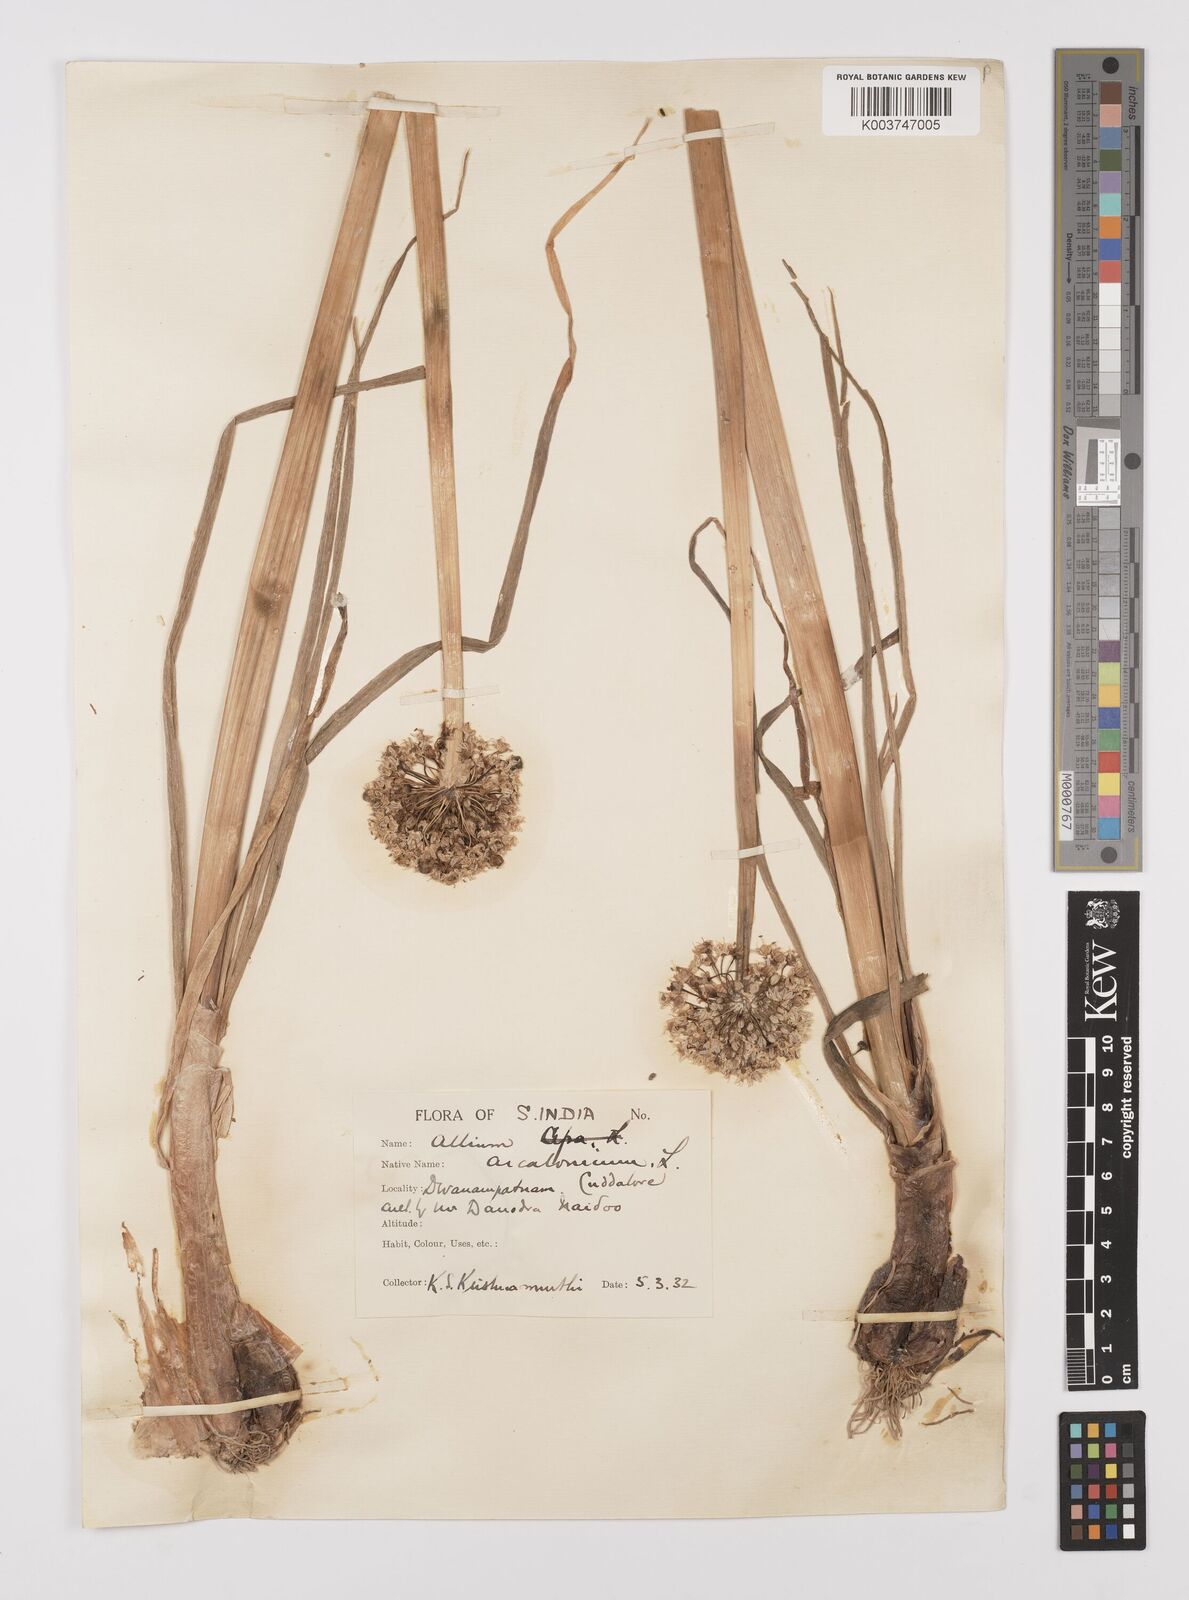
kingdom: Plantae
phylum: Tracheophyta
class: Liliopsida
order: Asparagales
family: Amaryllidaceae
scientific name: Amaryllidaceae
